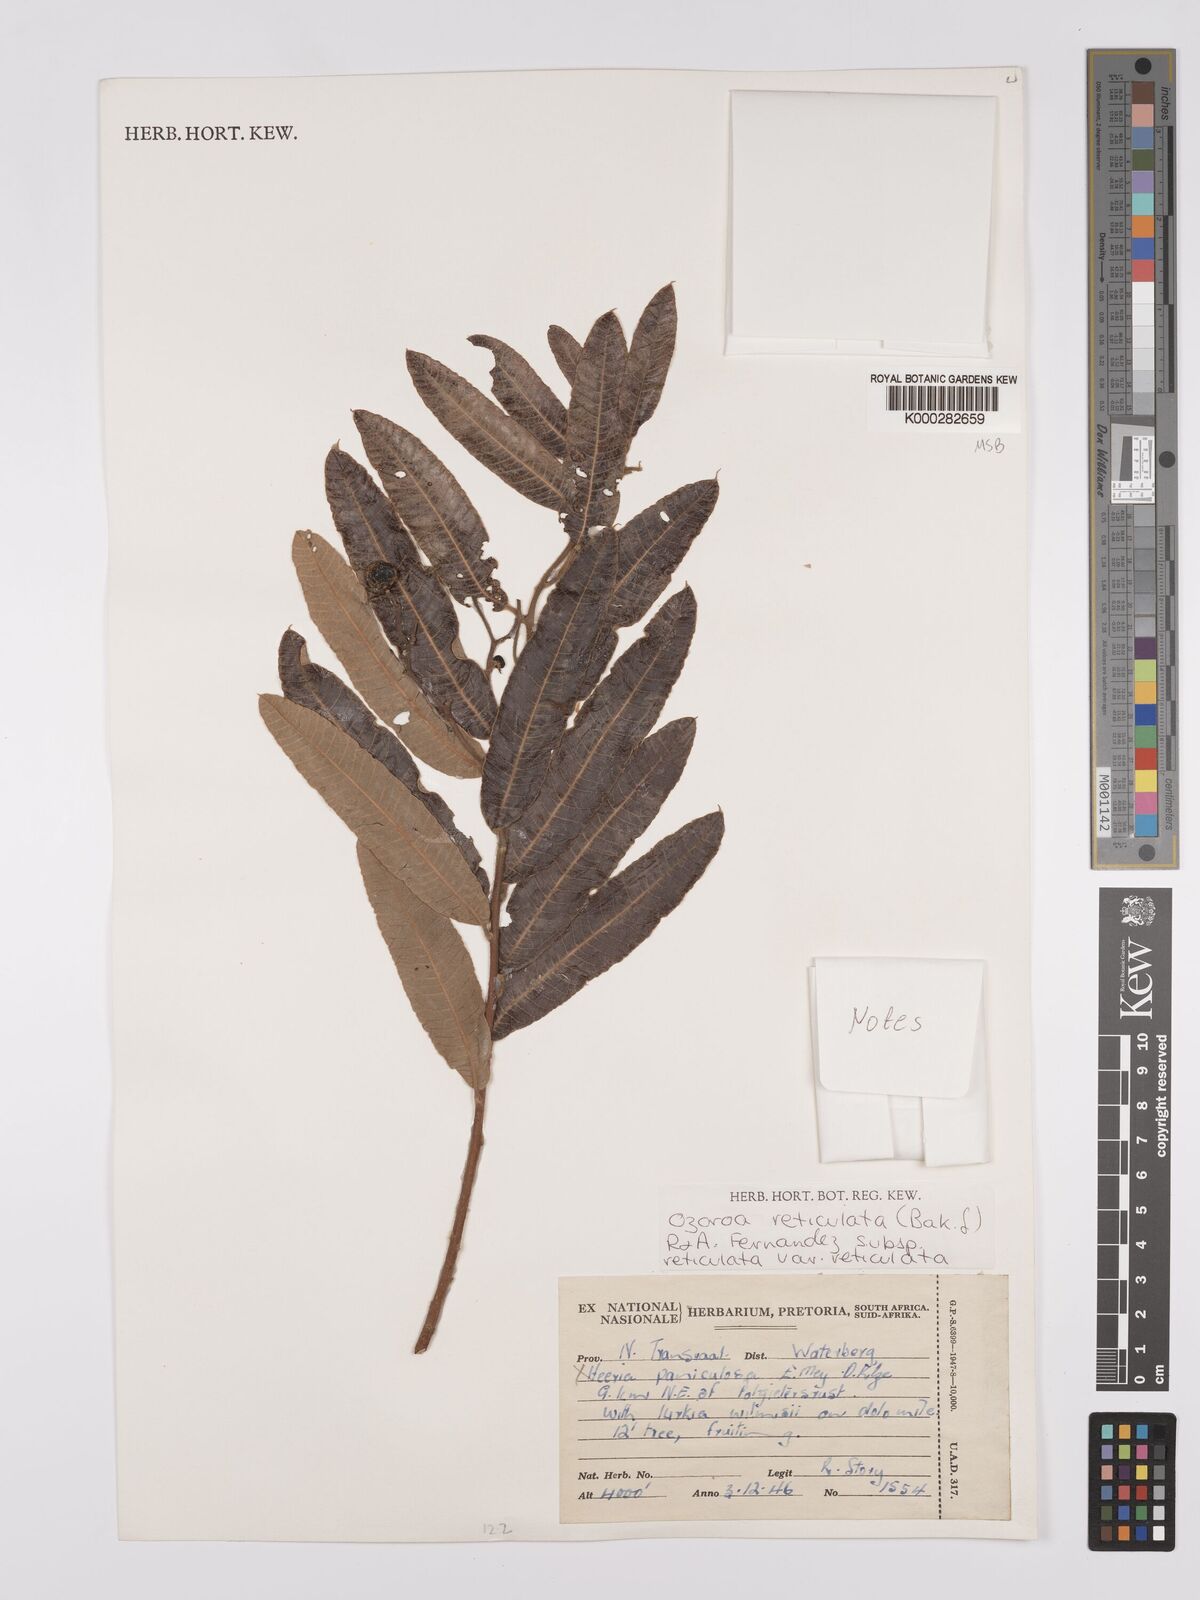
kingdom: Plantae
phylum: Tracheophyta
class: Magnoliopsida
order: Sapindales
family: Anacardiaceae
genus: Ozoroa
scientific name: Ozoroa insignis
